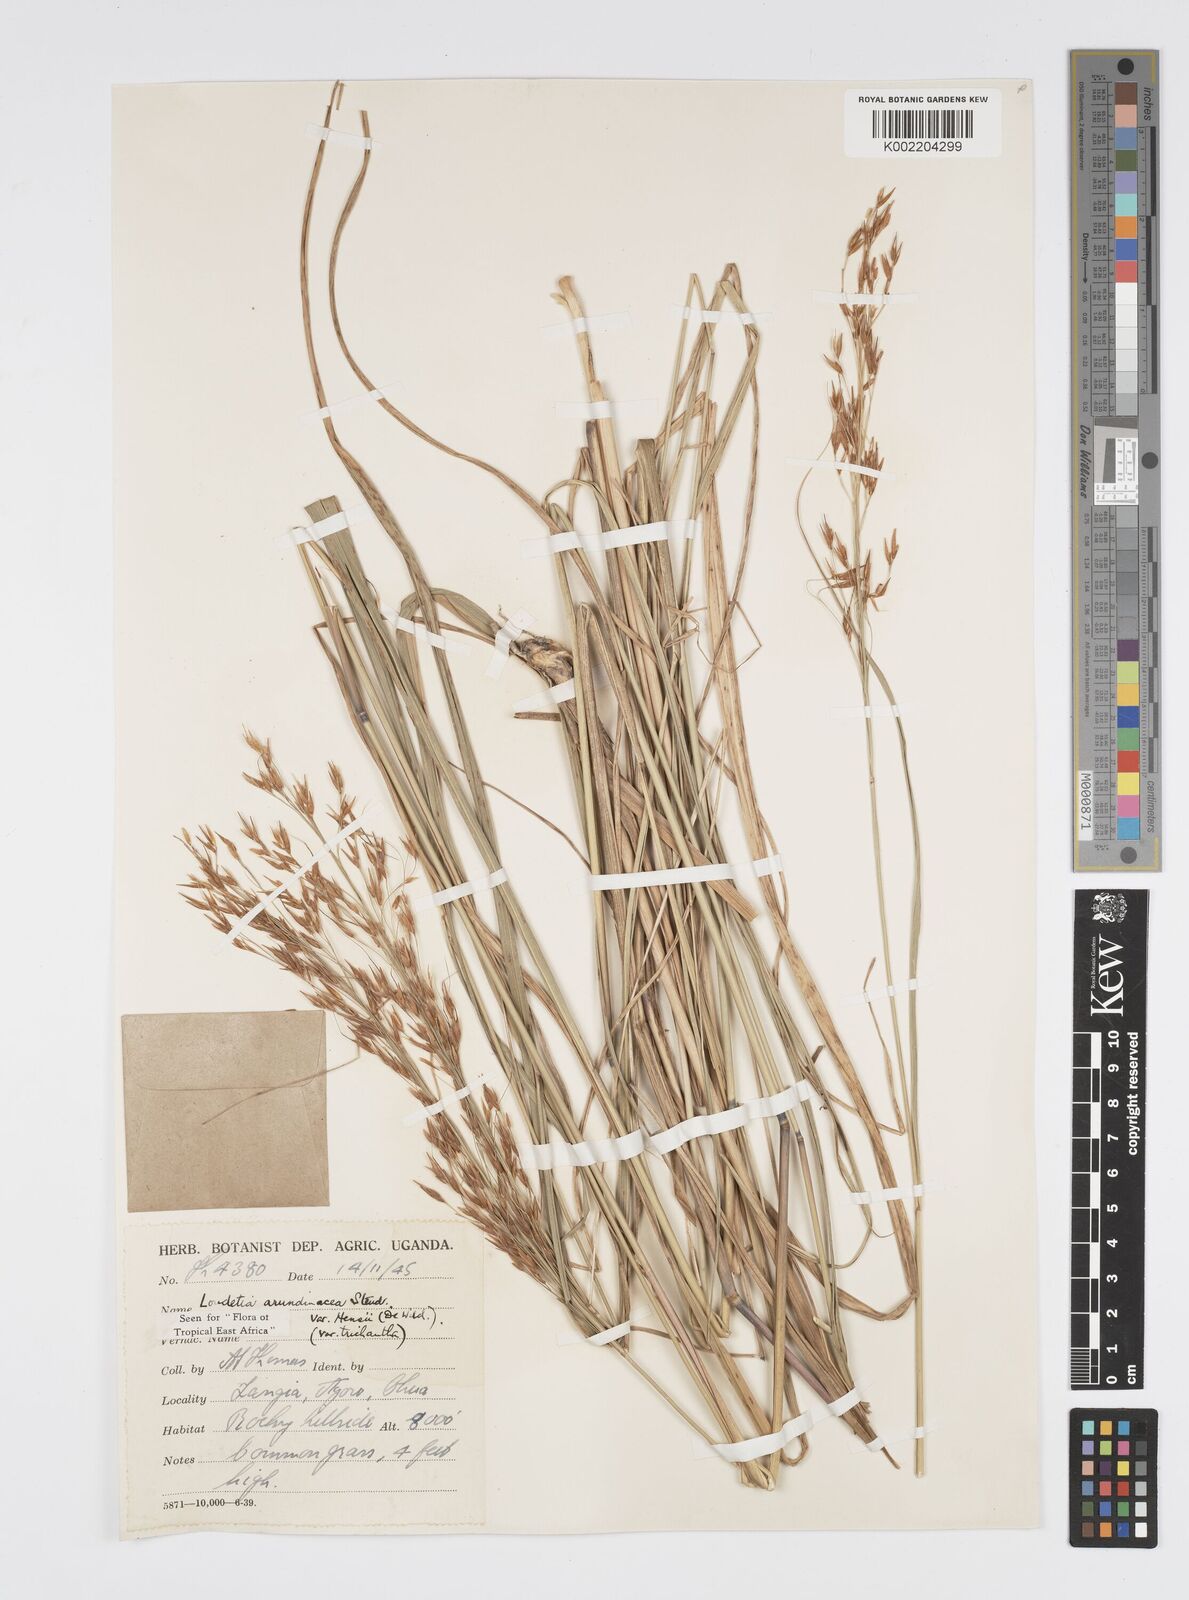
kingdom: Plantae
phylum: Tracheophyta
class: Liliopsida
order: Poales
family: Poaceae
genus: Loudetia
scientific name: Loudetia arundinacea
